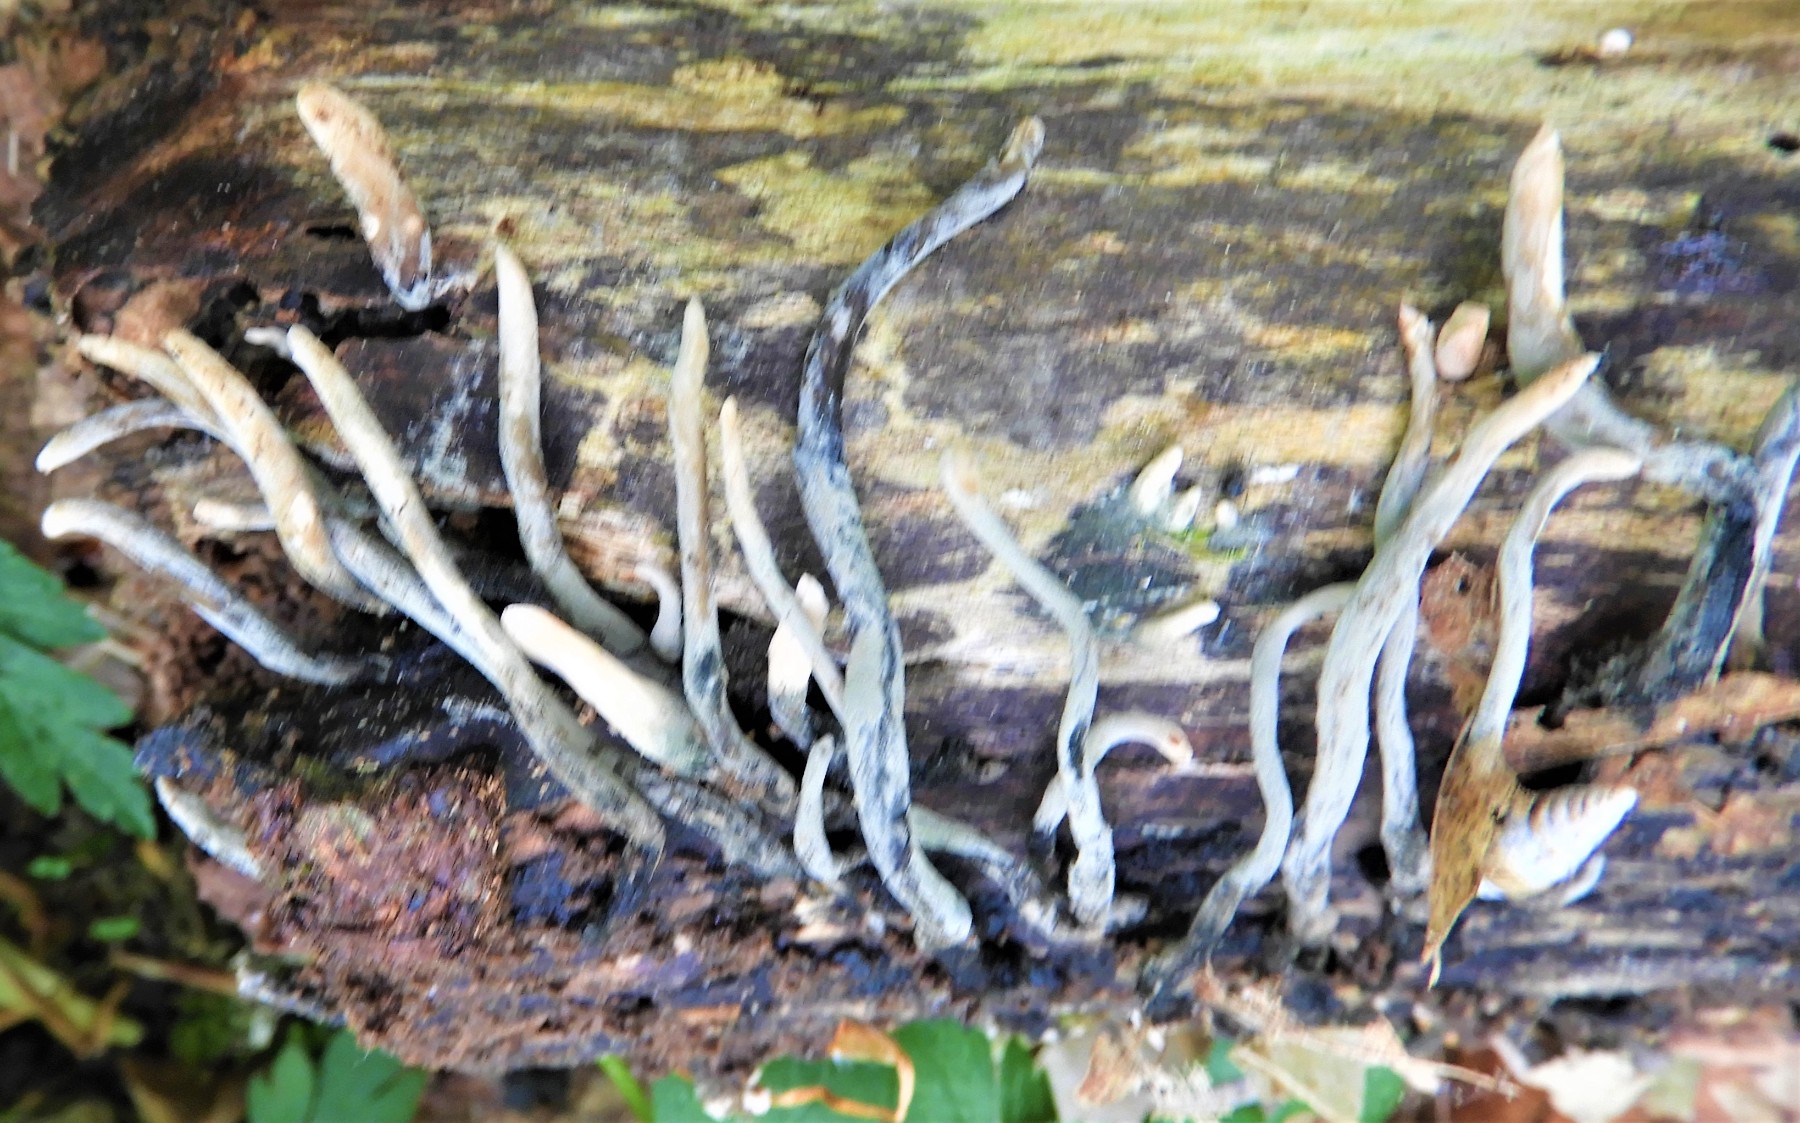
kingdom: Fungi
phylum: Ascomycota
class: Sordariomycetes
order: Xylariales
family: Xylariaceae
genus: Xylaria
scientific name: Xylaria hypoxylon
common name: grenet stødsvamp
